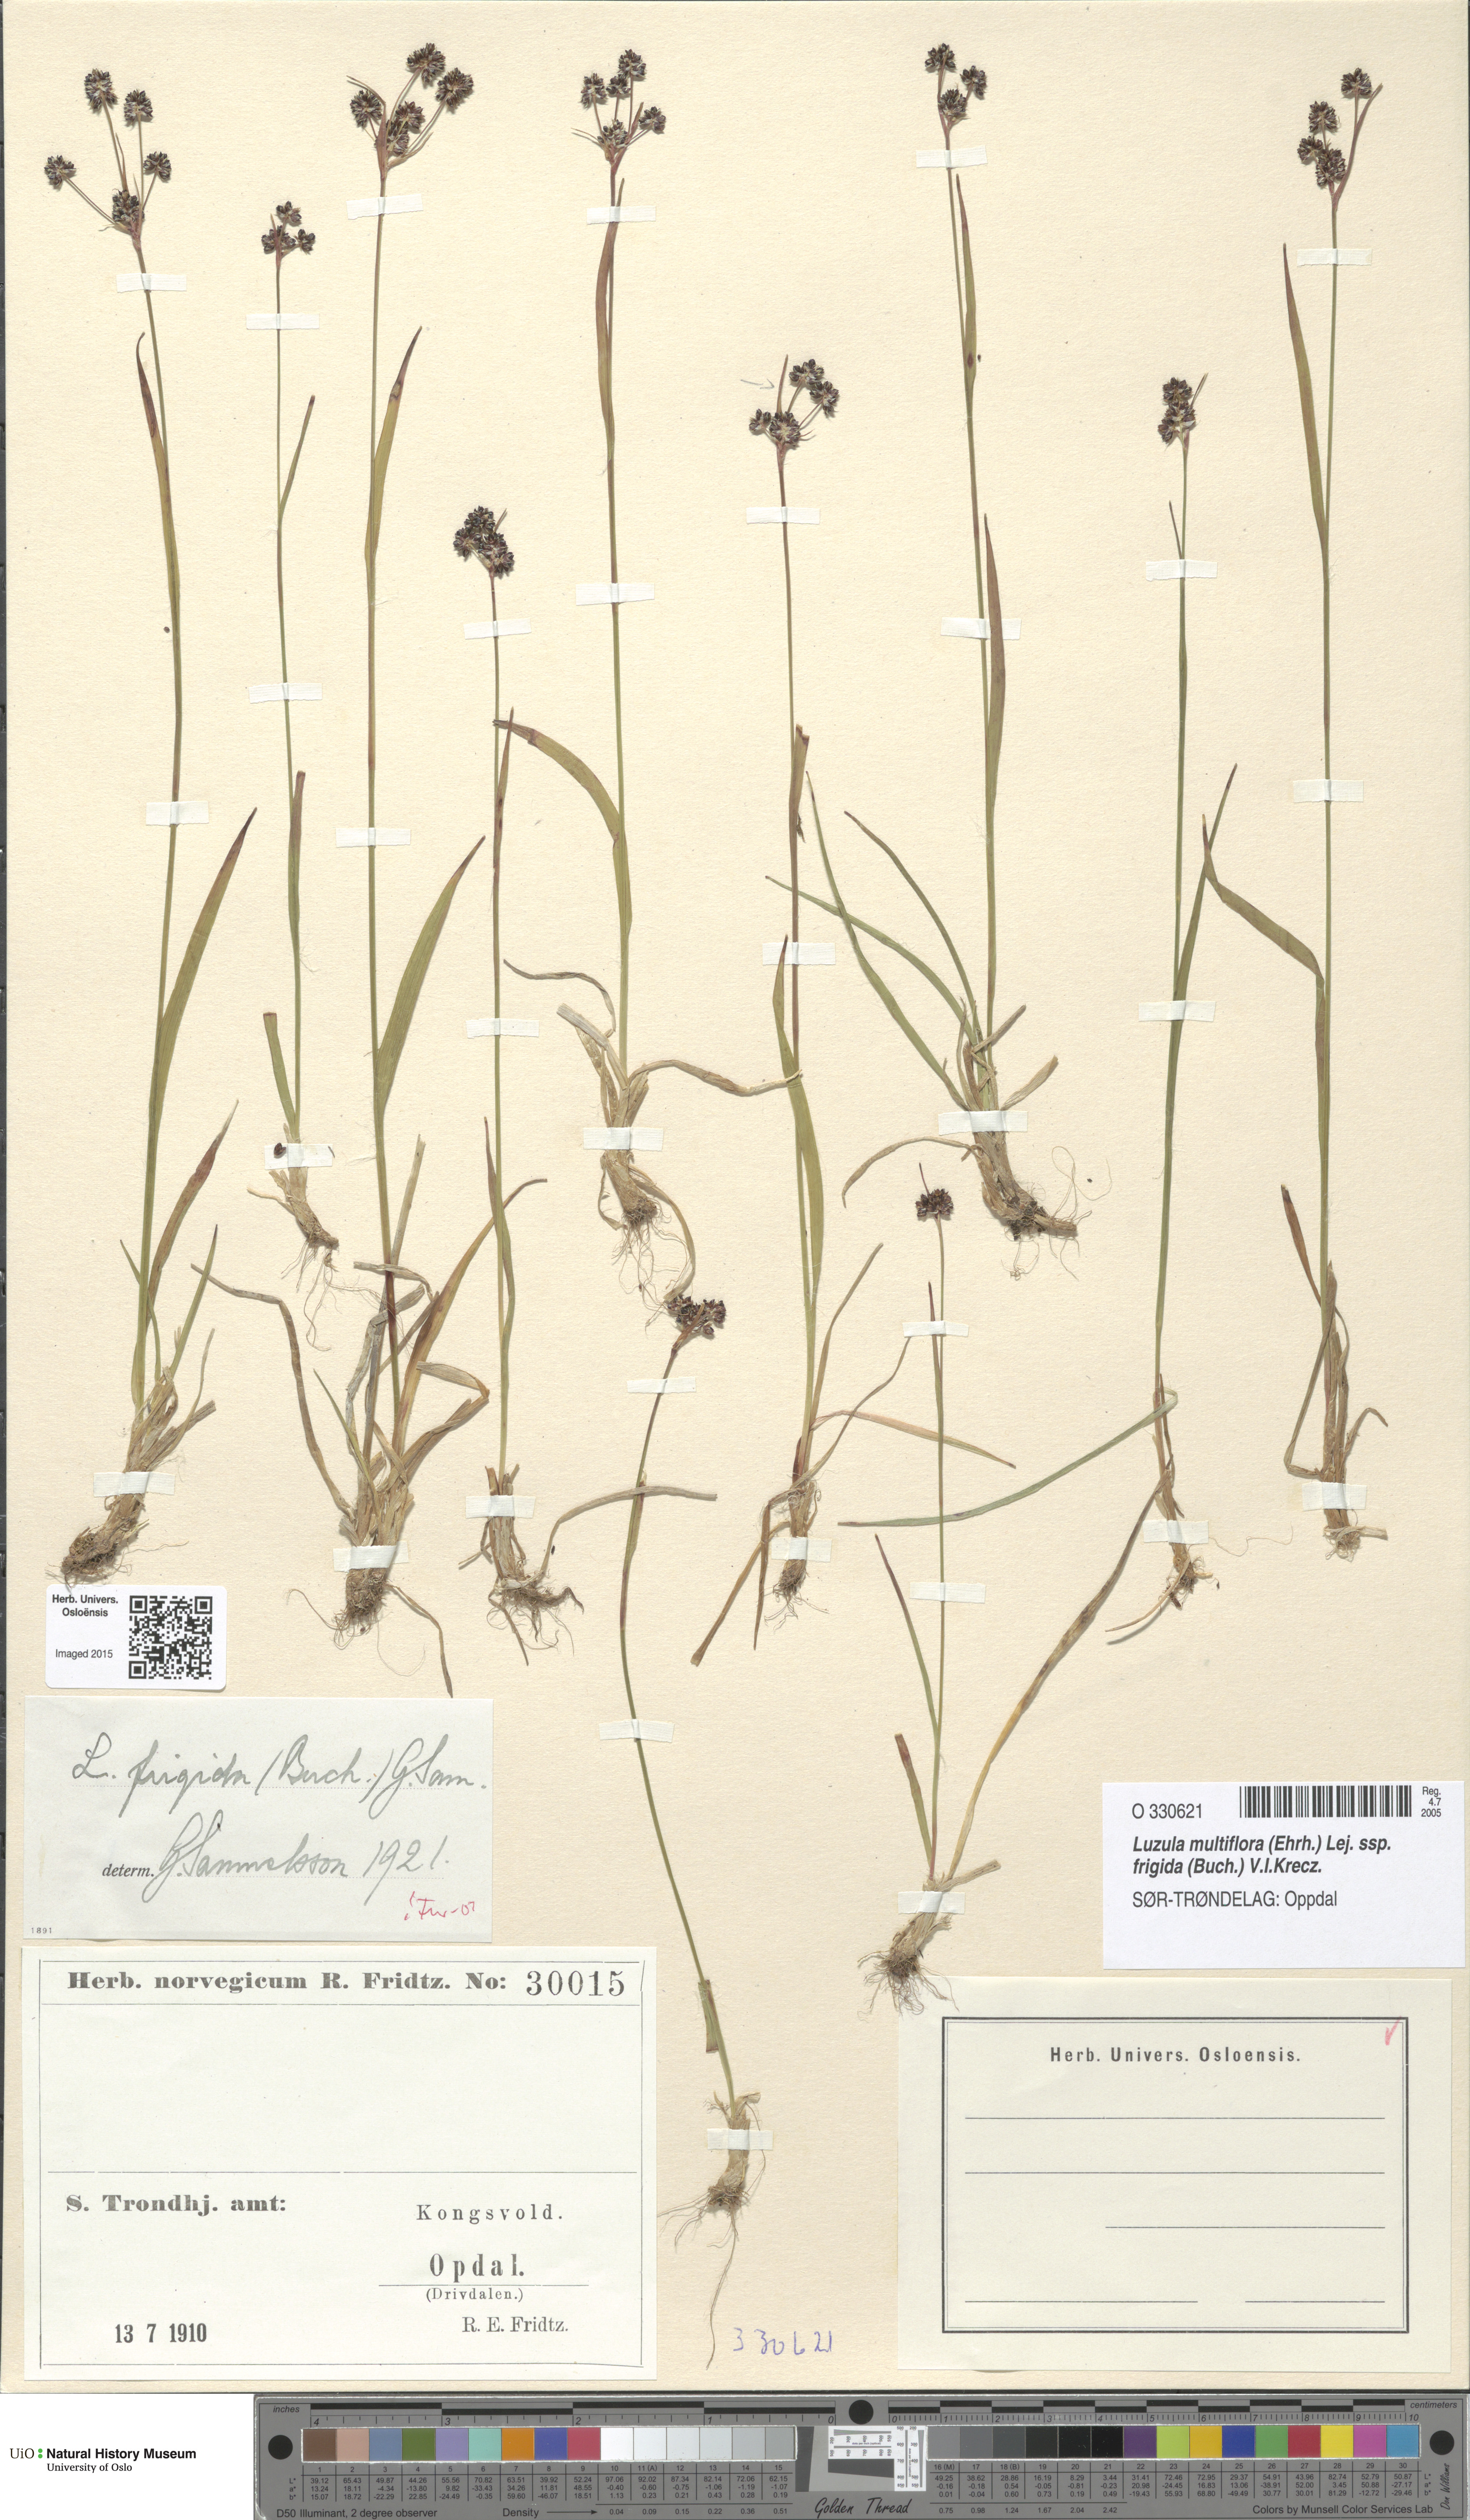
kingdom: Plantae
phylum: Tracheophyta
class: Liliopsida
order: Poales
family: Juncaceae
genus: Luzula
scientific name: Luzula multiflora
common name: Heath wood-rush
